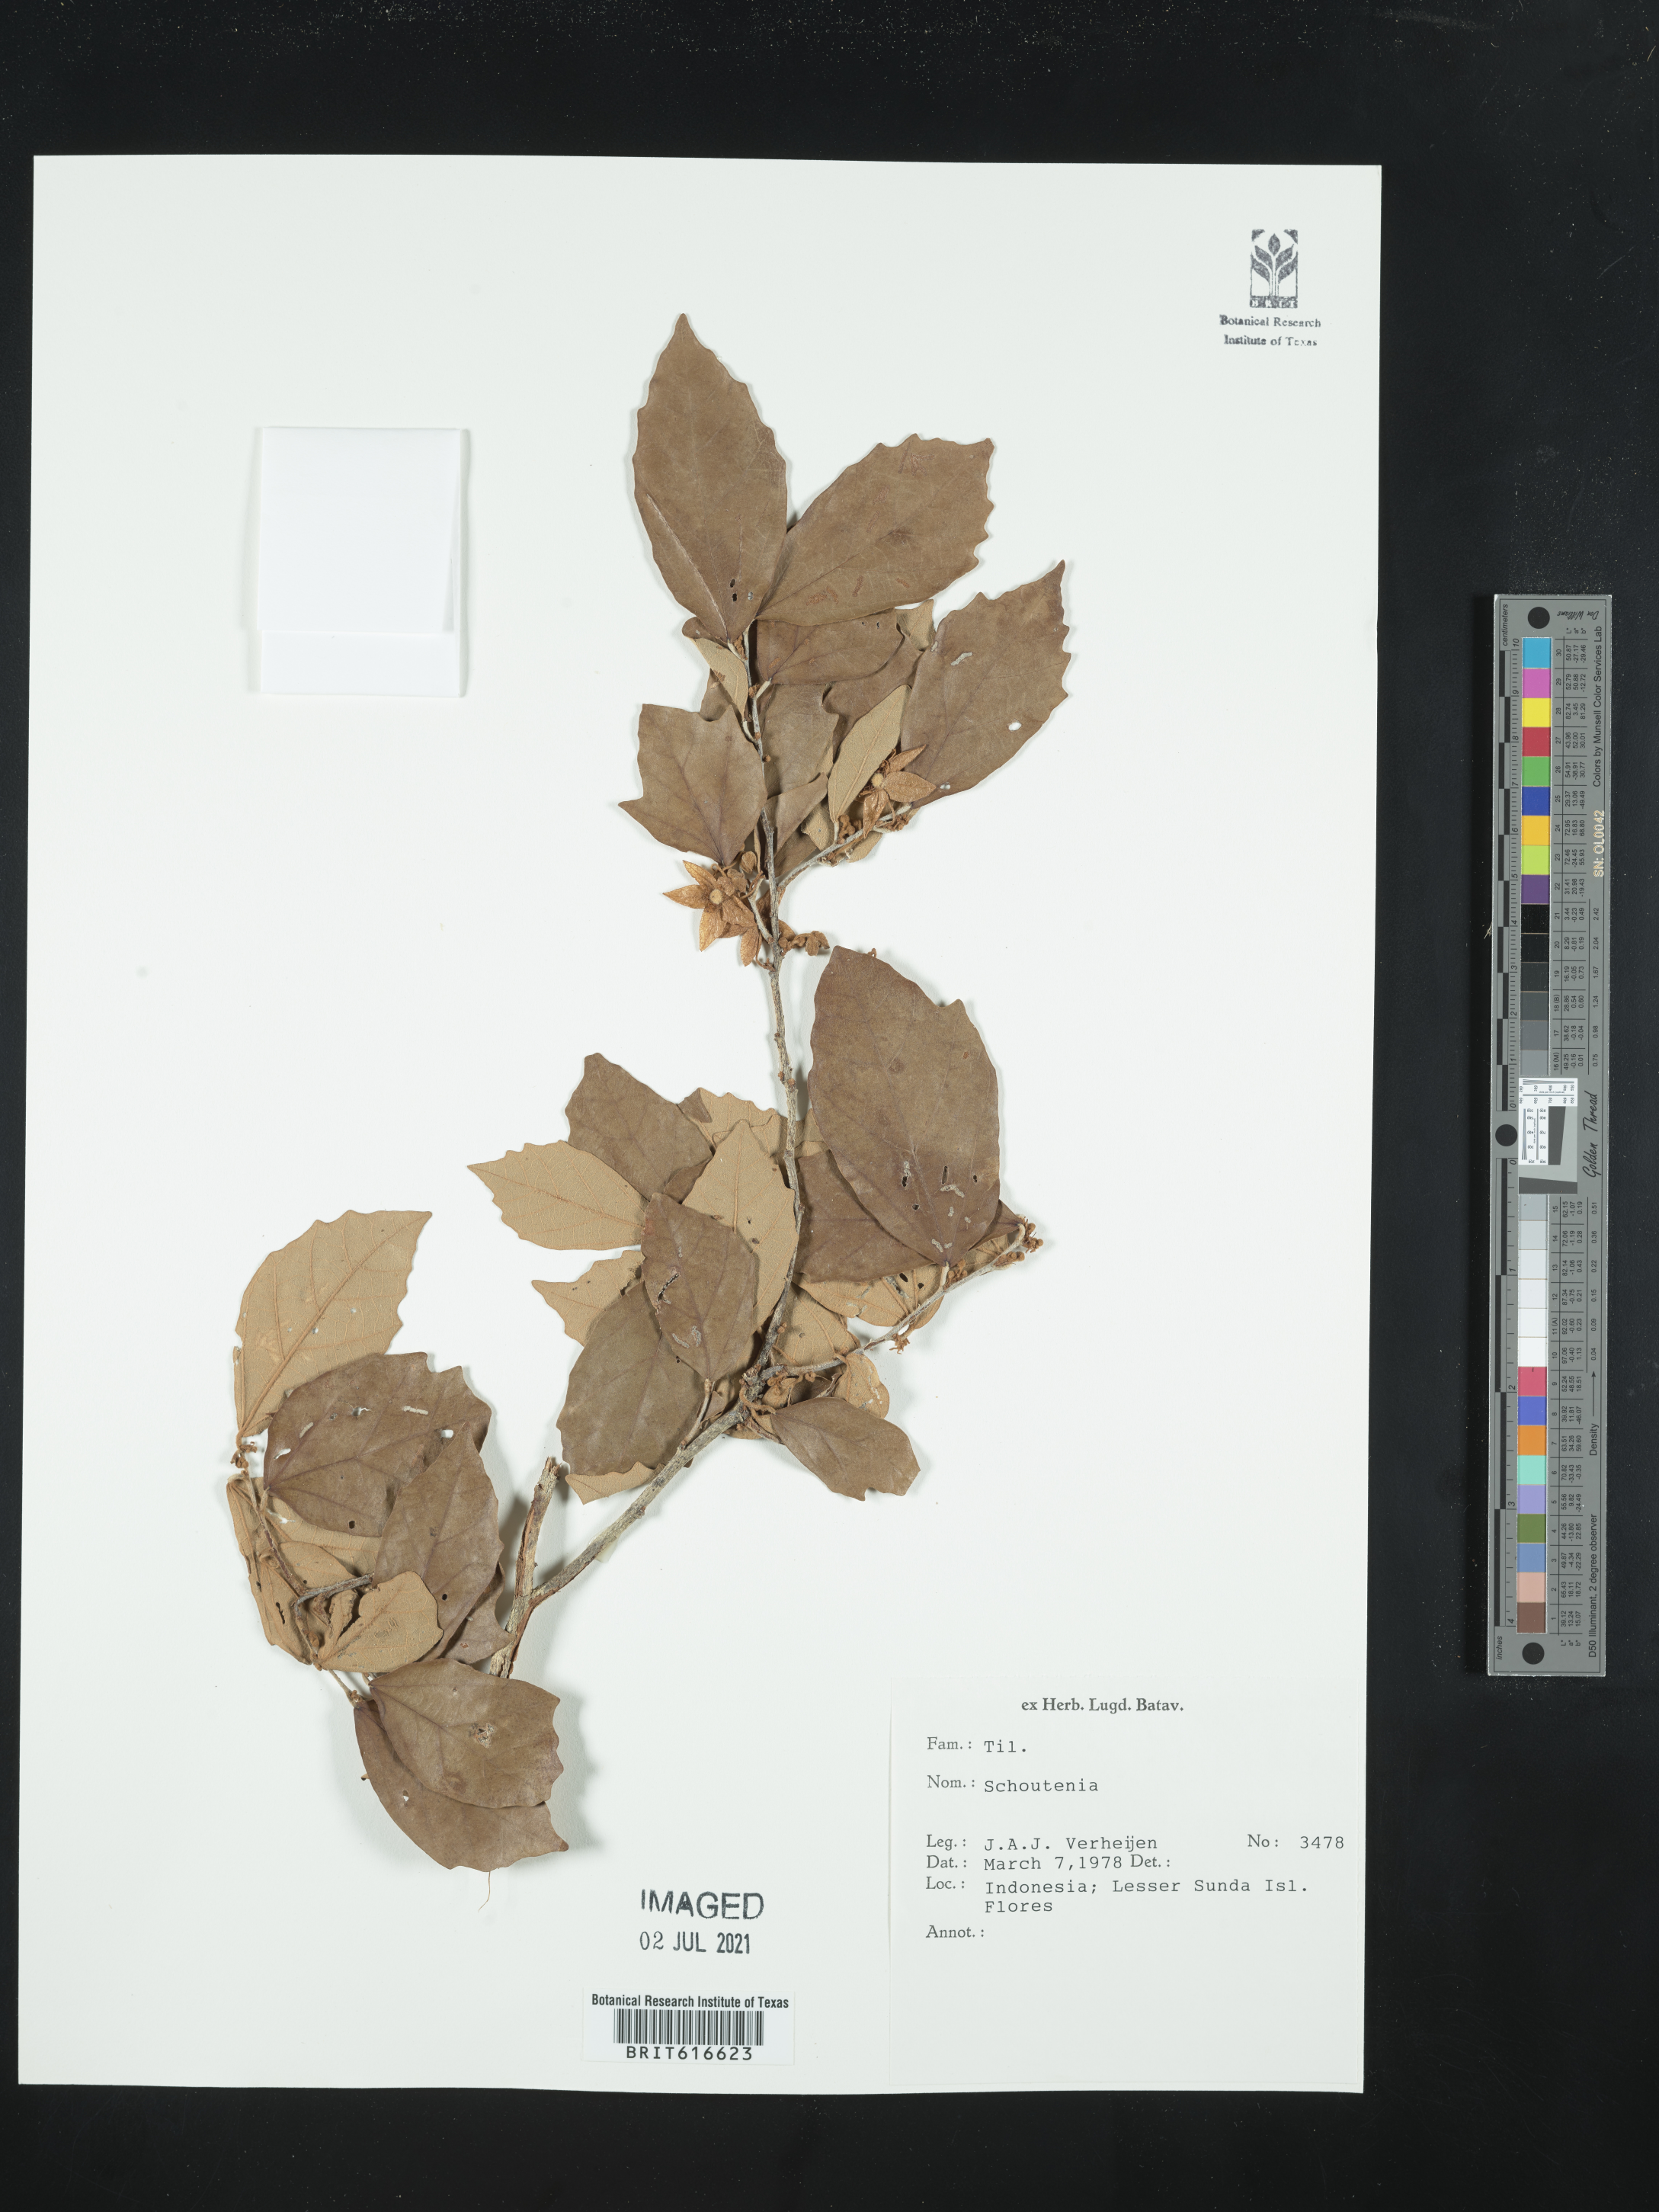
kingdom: Plantae
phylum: Tracheophyta
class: Magnoliopsida
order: Malvales
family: Malvaceae
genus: Schoutenia
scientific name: Schoutenia
